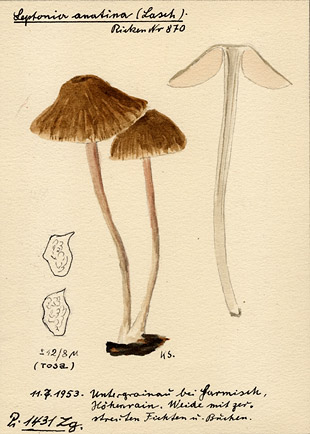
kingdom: Fungi
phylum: Basidiomycota
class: Agaricomycetes
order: Agaricales
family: Entolomataceae
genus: Entoloma
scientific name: Entoloma anatinum
